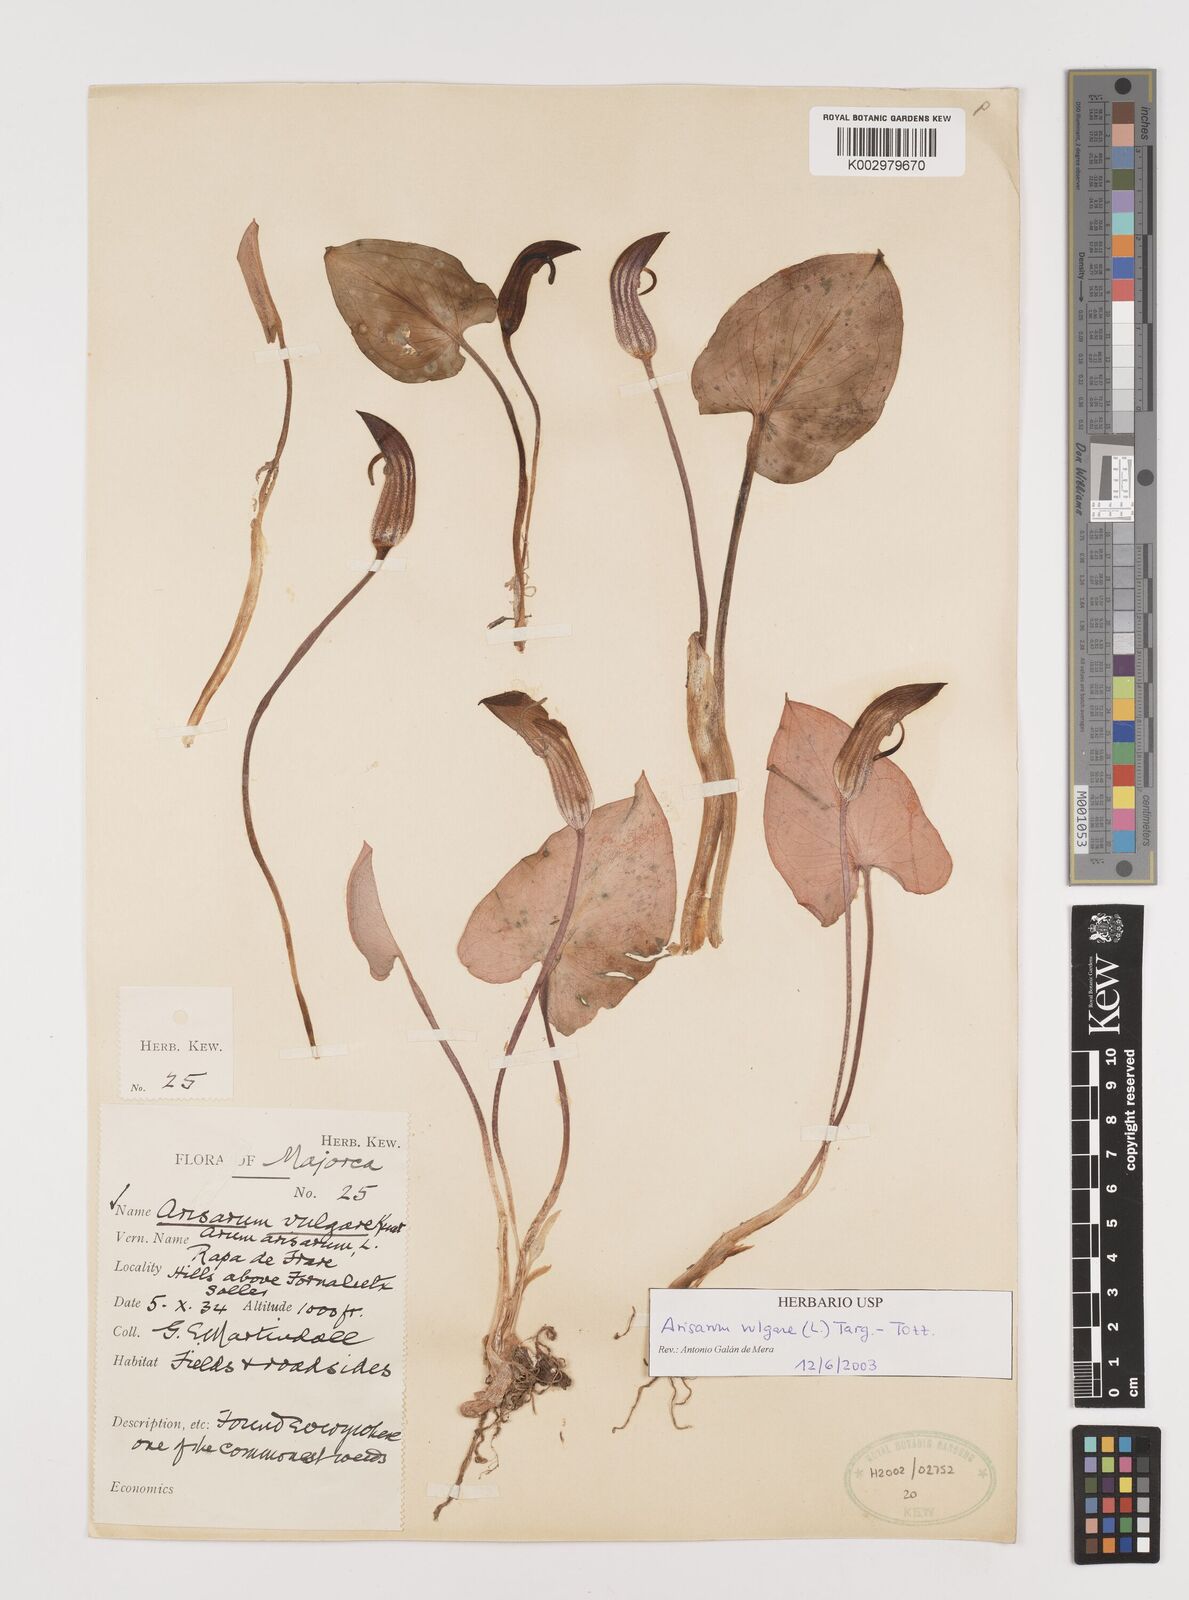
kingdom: Plantae
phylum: Tracheophyta
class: Liliopsida
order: Alismatales
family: Araceae
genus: Arisarum
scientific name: Arisarum vulgare
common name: Common arisarum
